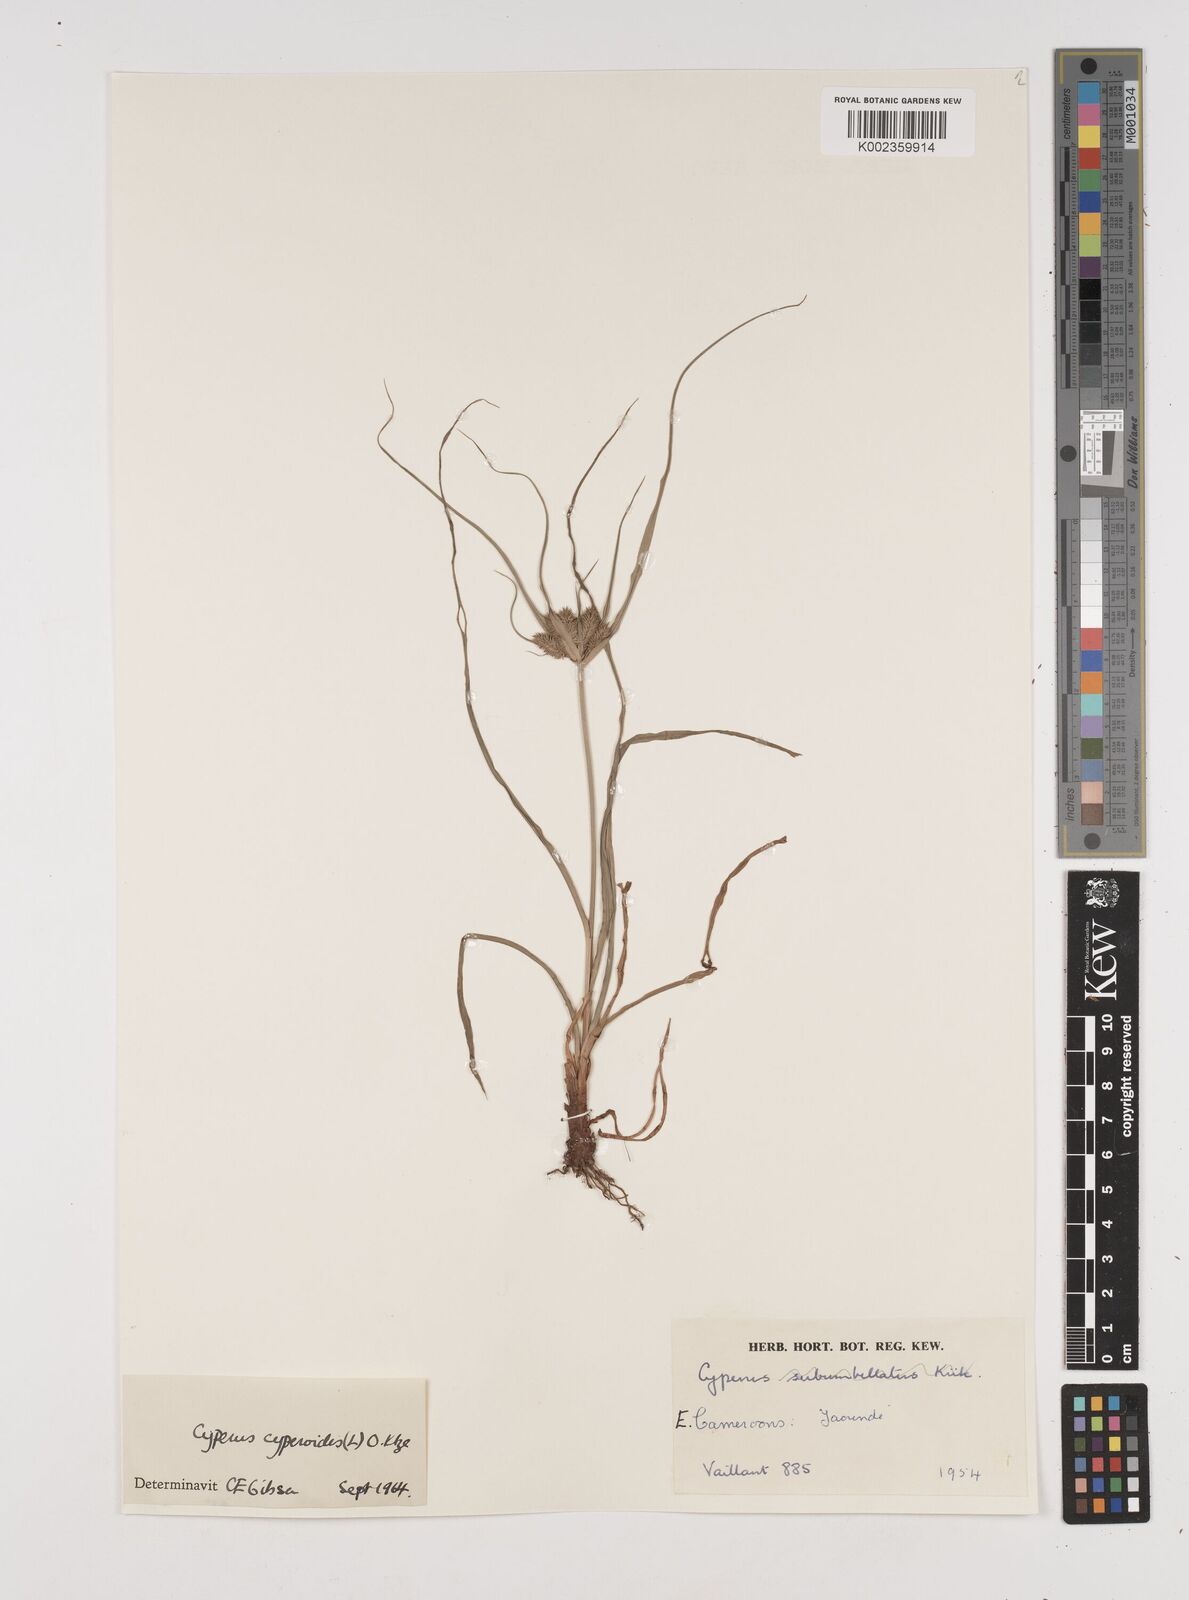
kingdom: Plantae
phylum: Tracheophyta
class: Liliopsida
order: Poales
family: Cyperaceae
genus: Cyperus
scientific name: Cyperus cyperoides
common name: Pacific island flat sedge
